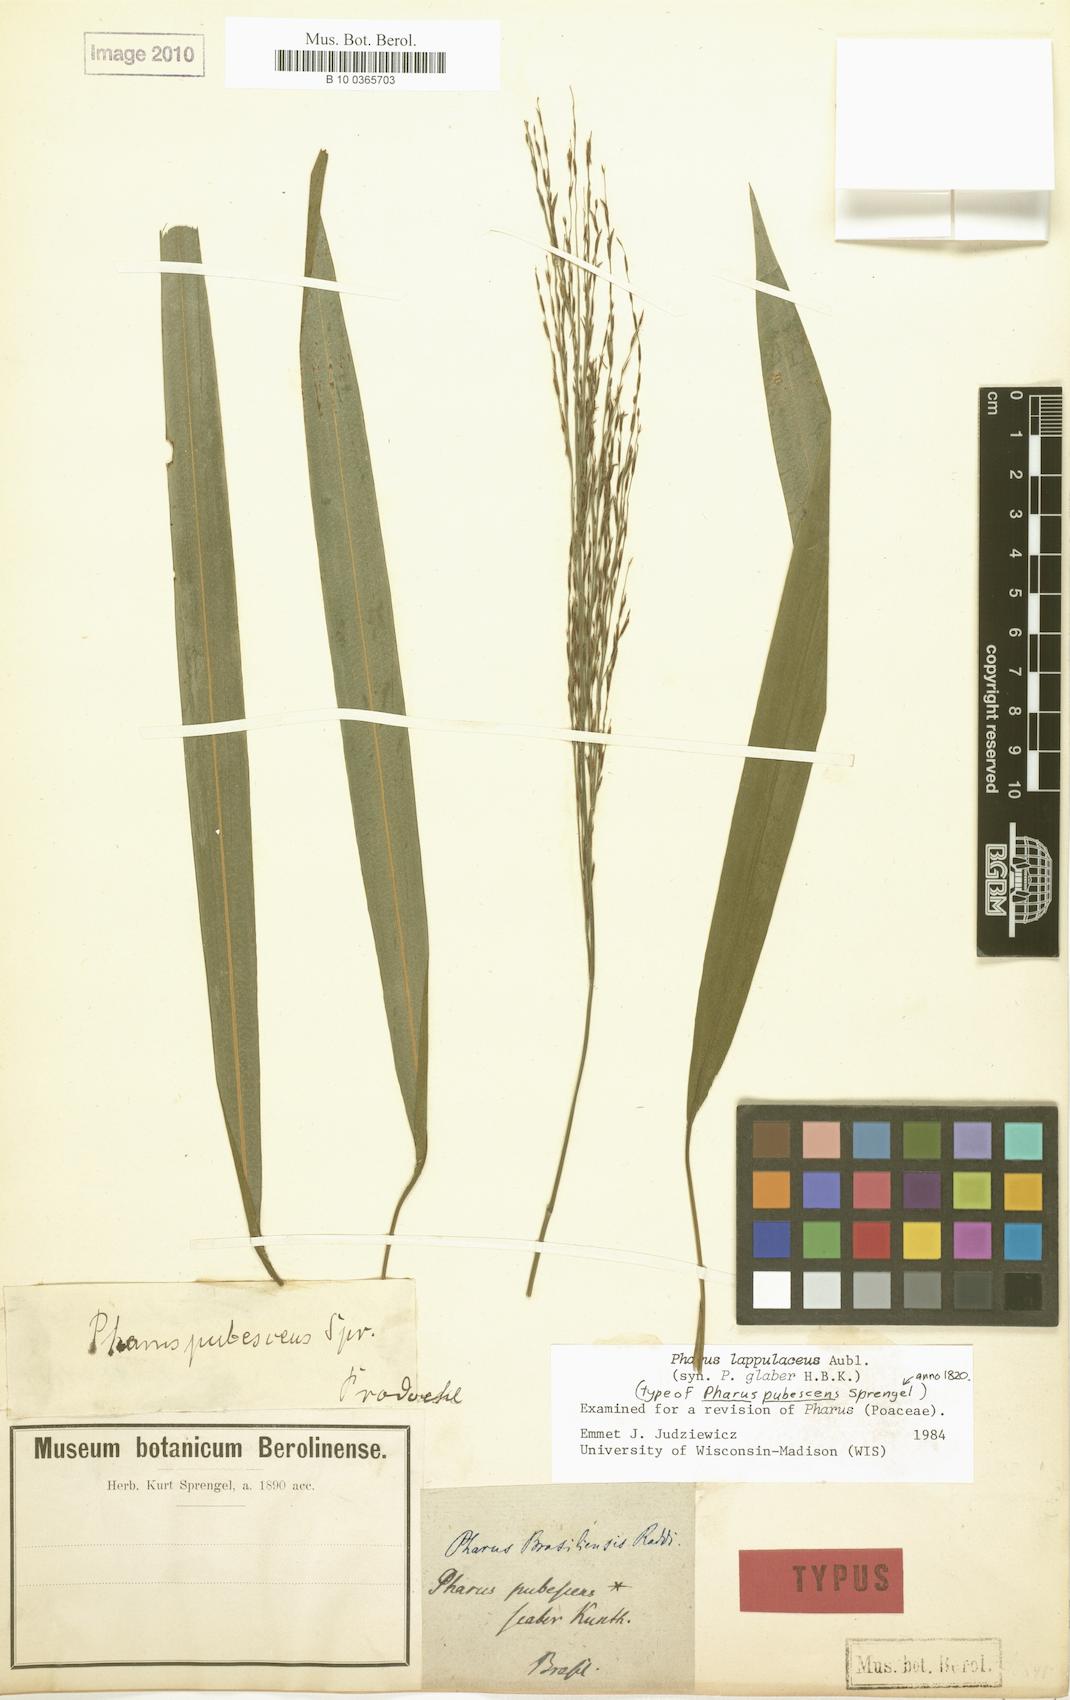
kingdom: Plantae
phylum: Tracheophyta
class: Liliopsida
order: Poales
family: Poaceae
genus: Pharus
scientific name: Pharus lappulaceus
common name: Creeping leafstalk grass
